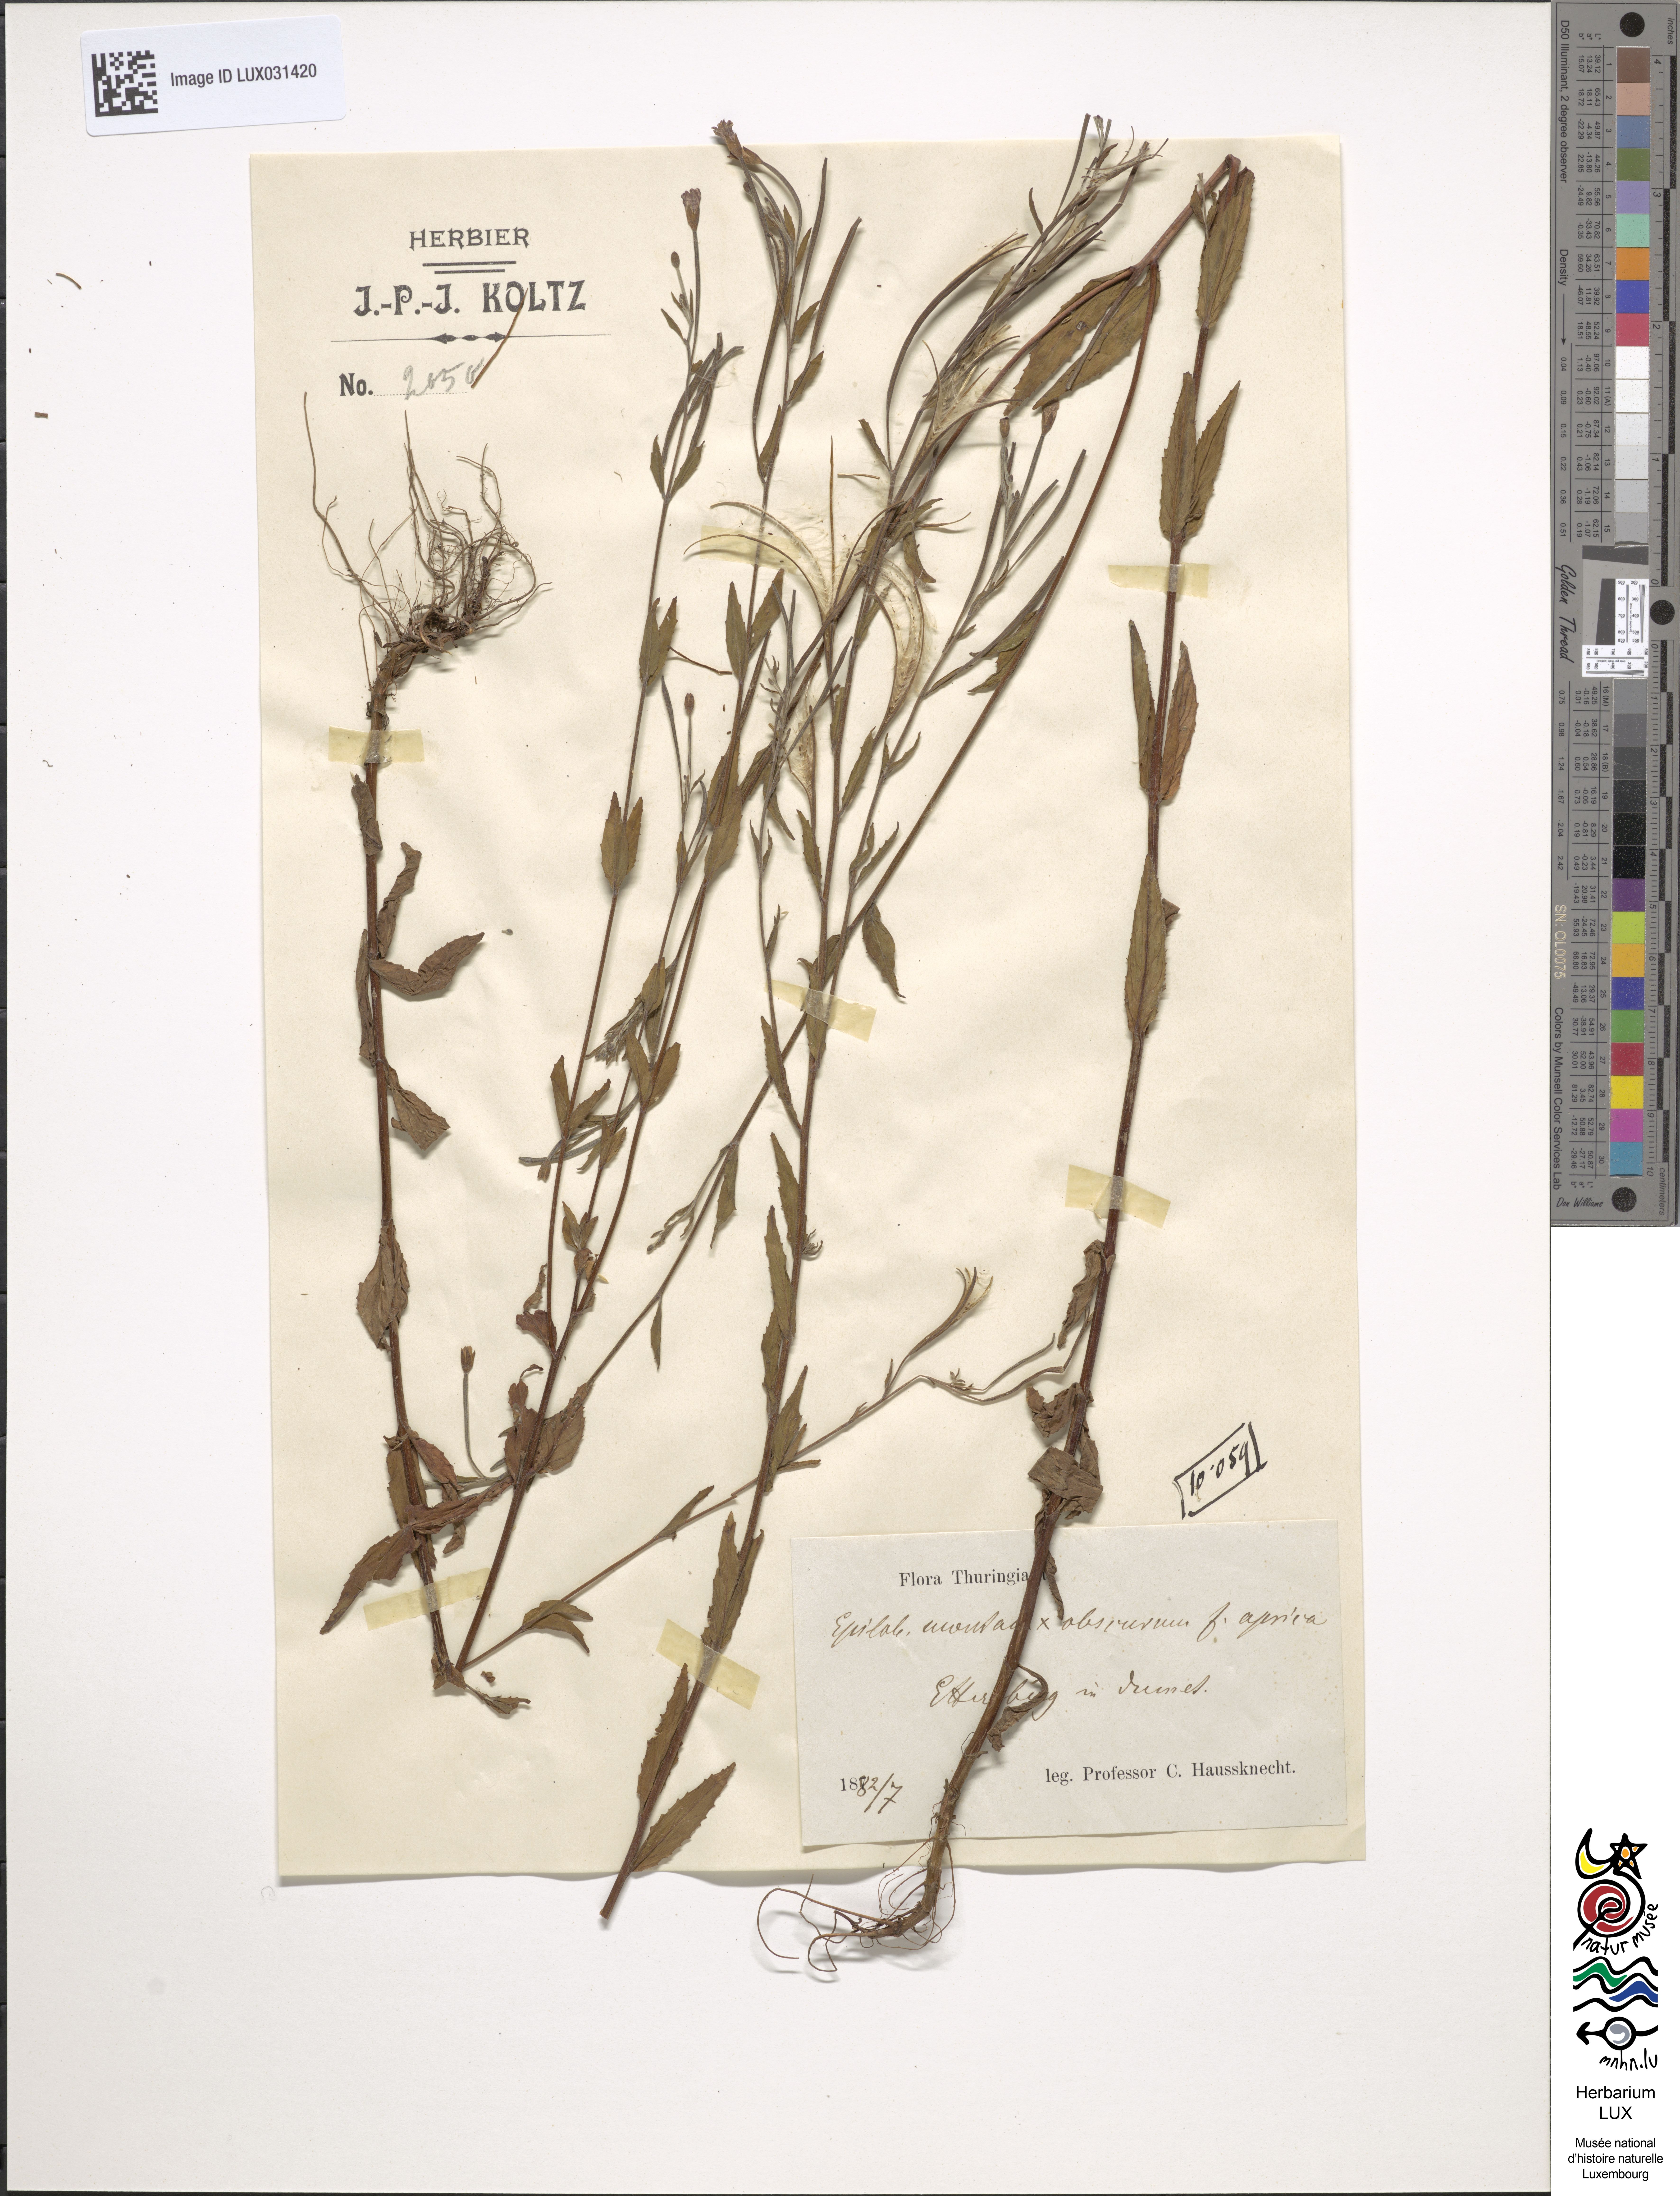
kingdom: Animalia
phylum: Arthropoda
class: Insecta
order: Hymenoptera
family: Megachilidae
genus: Epilobium
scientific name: Epilobium
